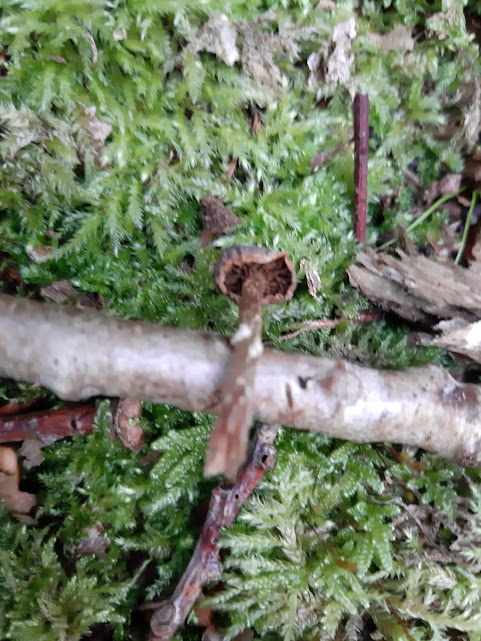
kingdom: Fungi
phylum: Basidiomycota
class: Agaricomycetes
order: Agaricales
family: Cortinariaceae
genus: Cortinarius
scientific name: Cortinarius
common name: pelargonie-slørhat
